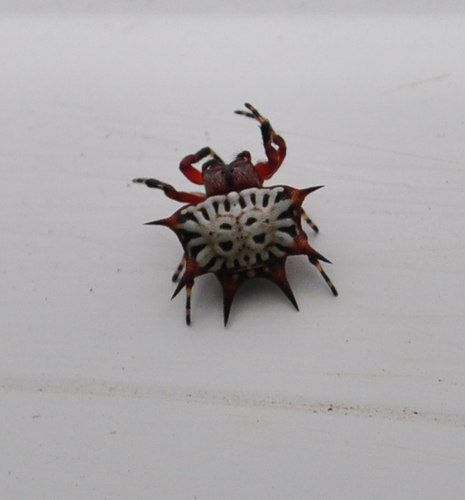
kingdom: Animalia
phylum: Arthropoda
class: Arachnida
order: Araneae
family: Araneidae
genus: Isoxya
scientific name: Isoxya stuhlmanni
